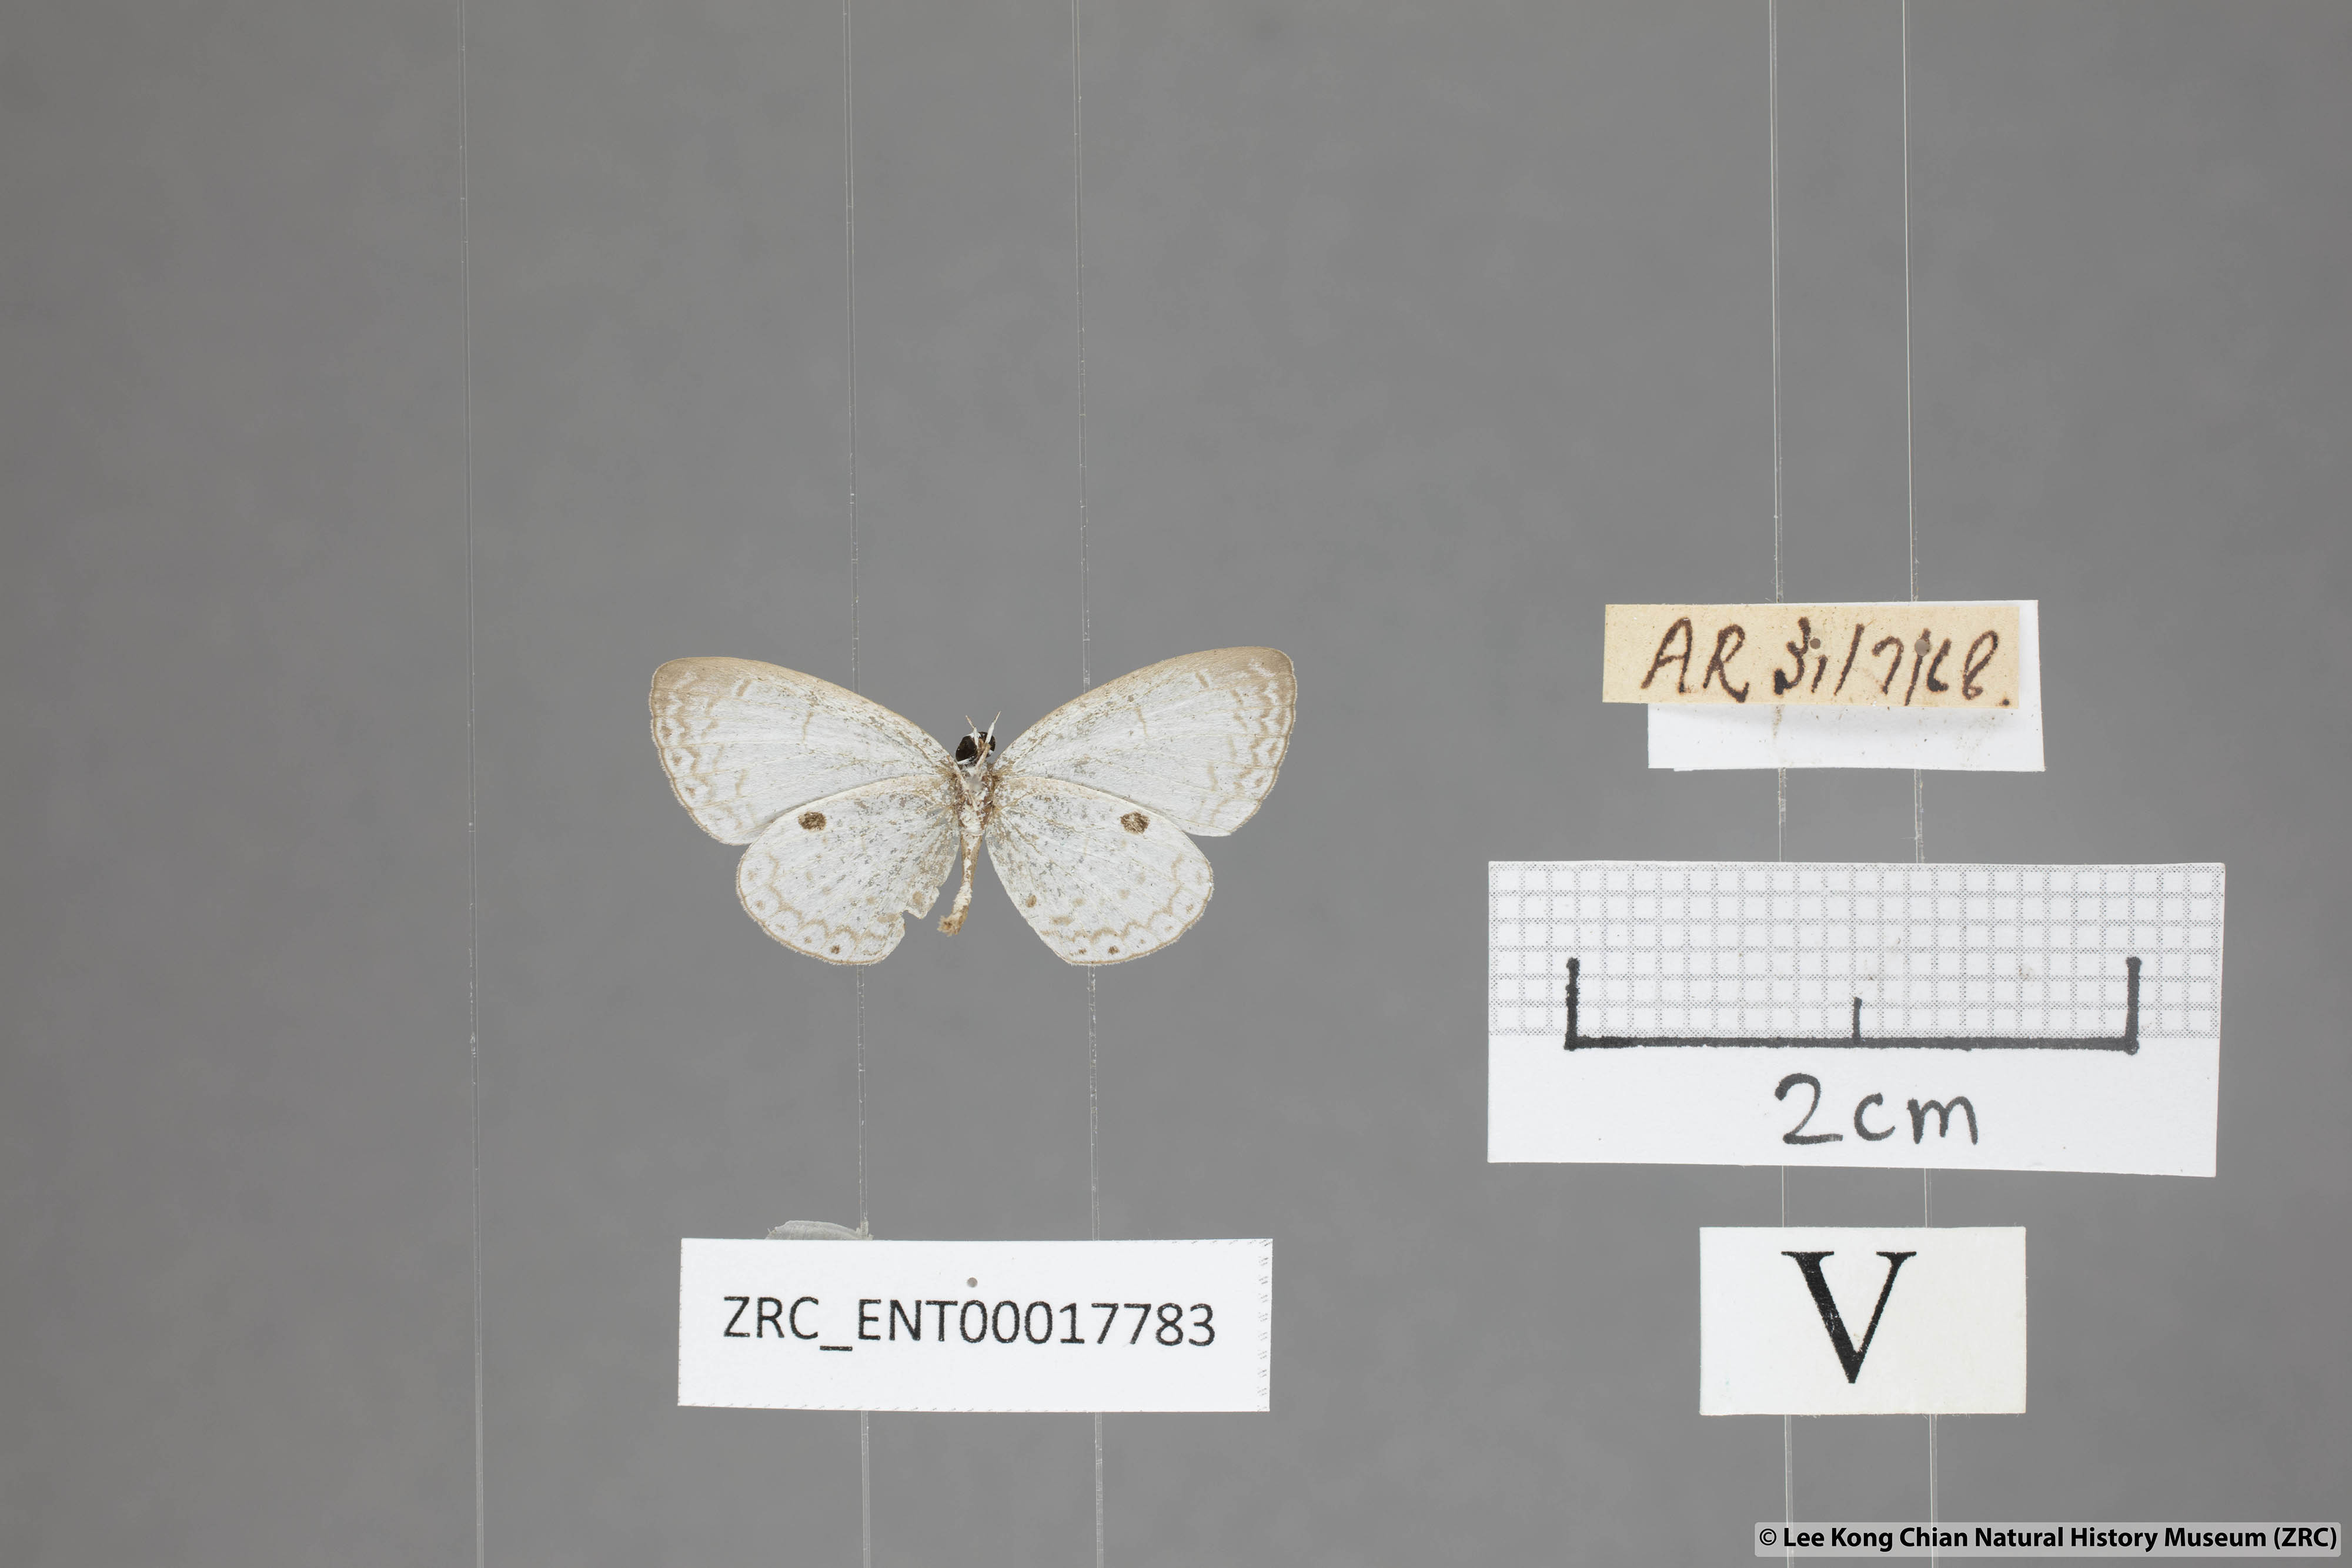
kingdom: Animalia
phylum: Arthropoda
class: Insecta
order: Lepidoptera
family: Lycaenidae
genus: Callenya
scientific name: Callenya lenya
